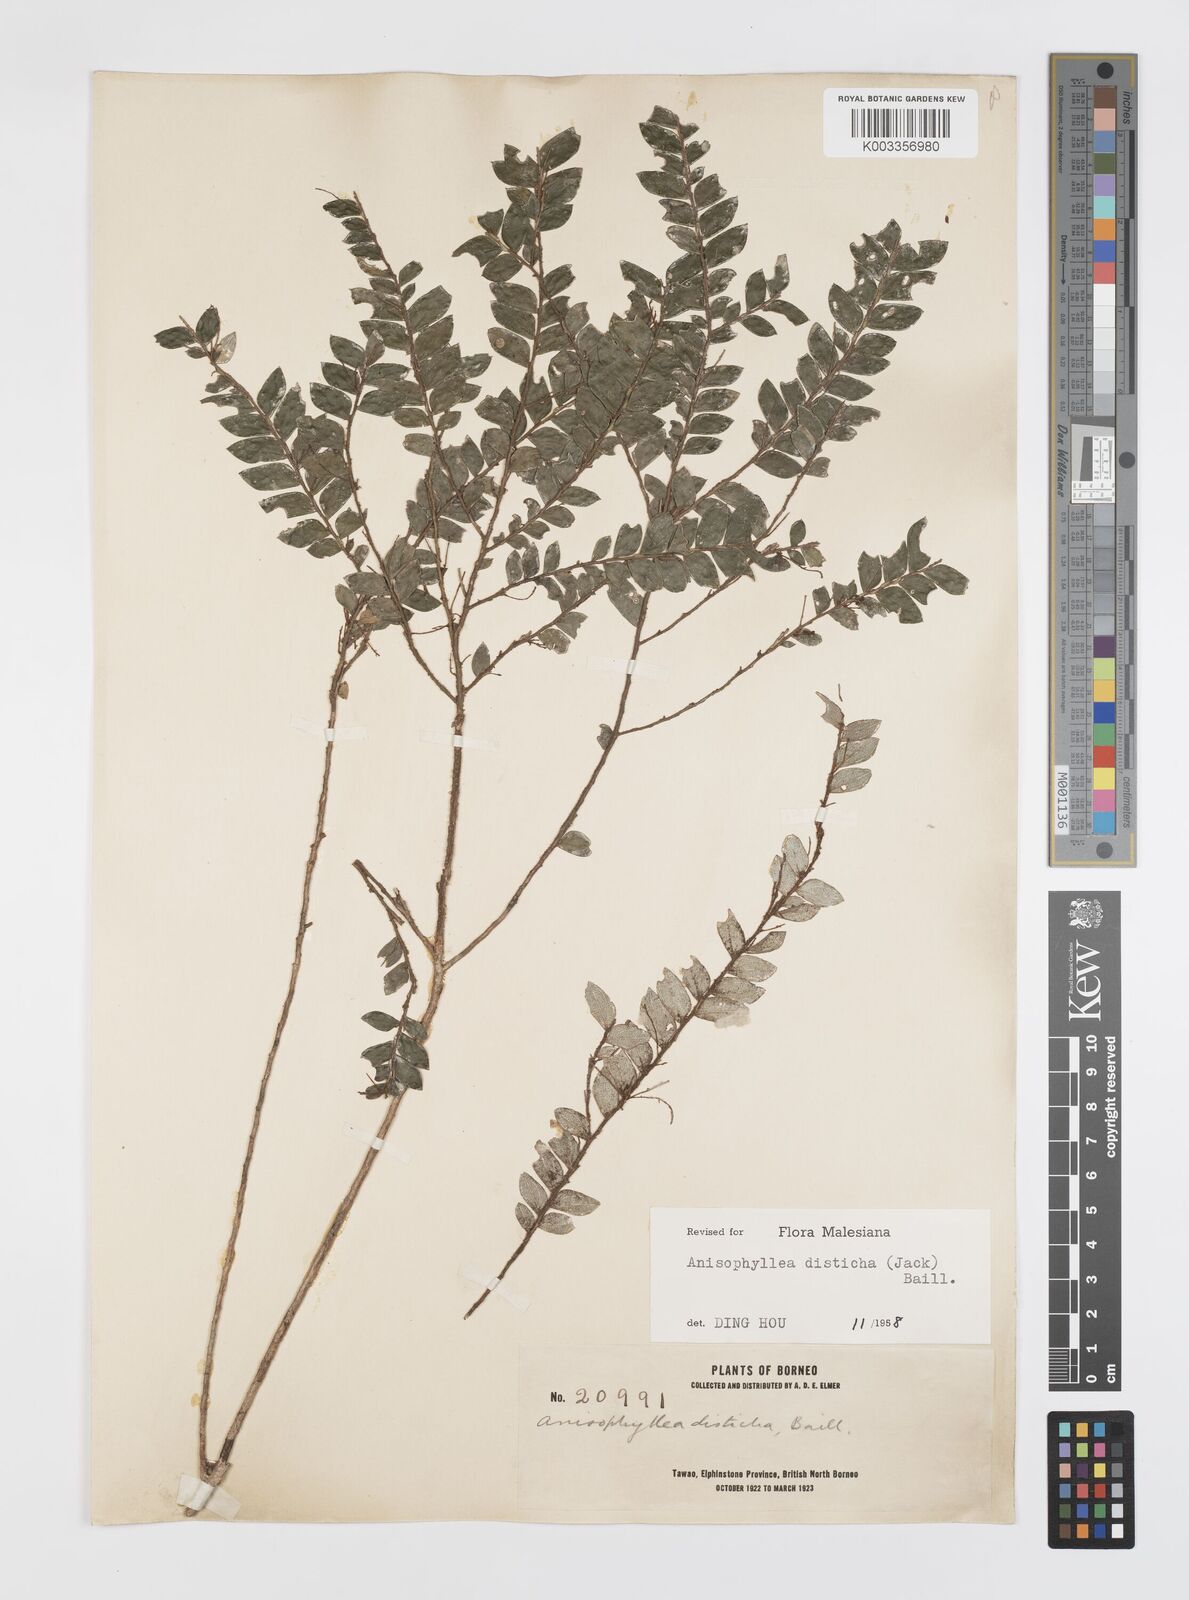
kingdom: Plantae
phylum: Tracheophyta
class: Magnoliopsida
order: Cucurbitales
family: Anisophylleaceae
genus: Anisophyllea
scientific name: Anisophyllea disticha
